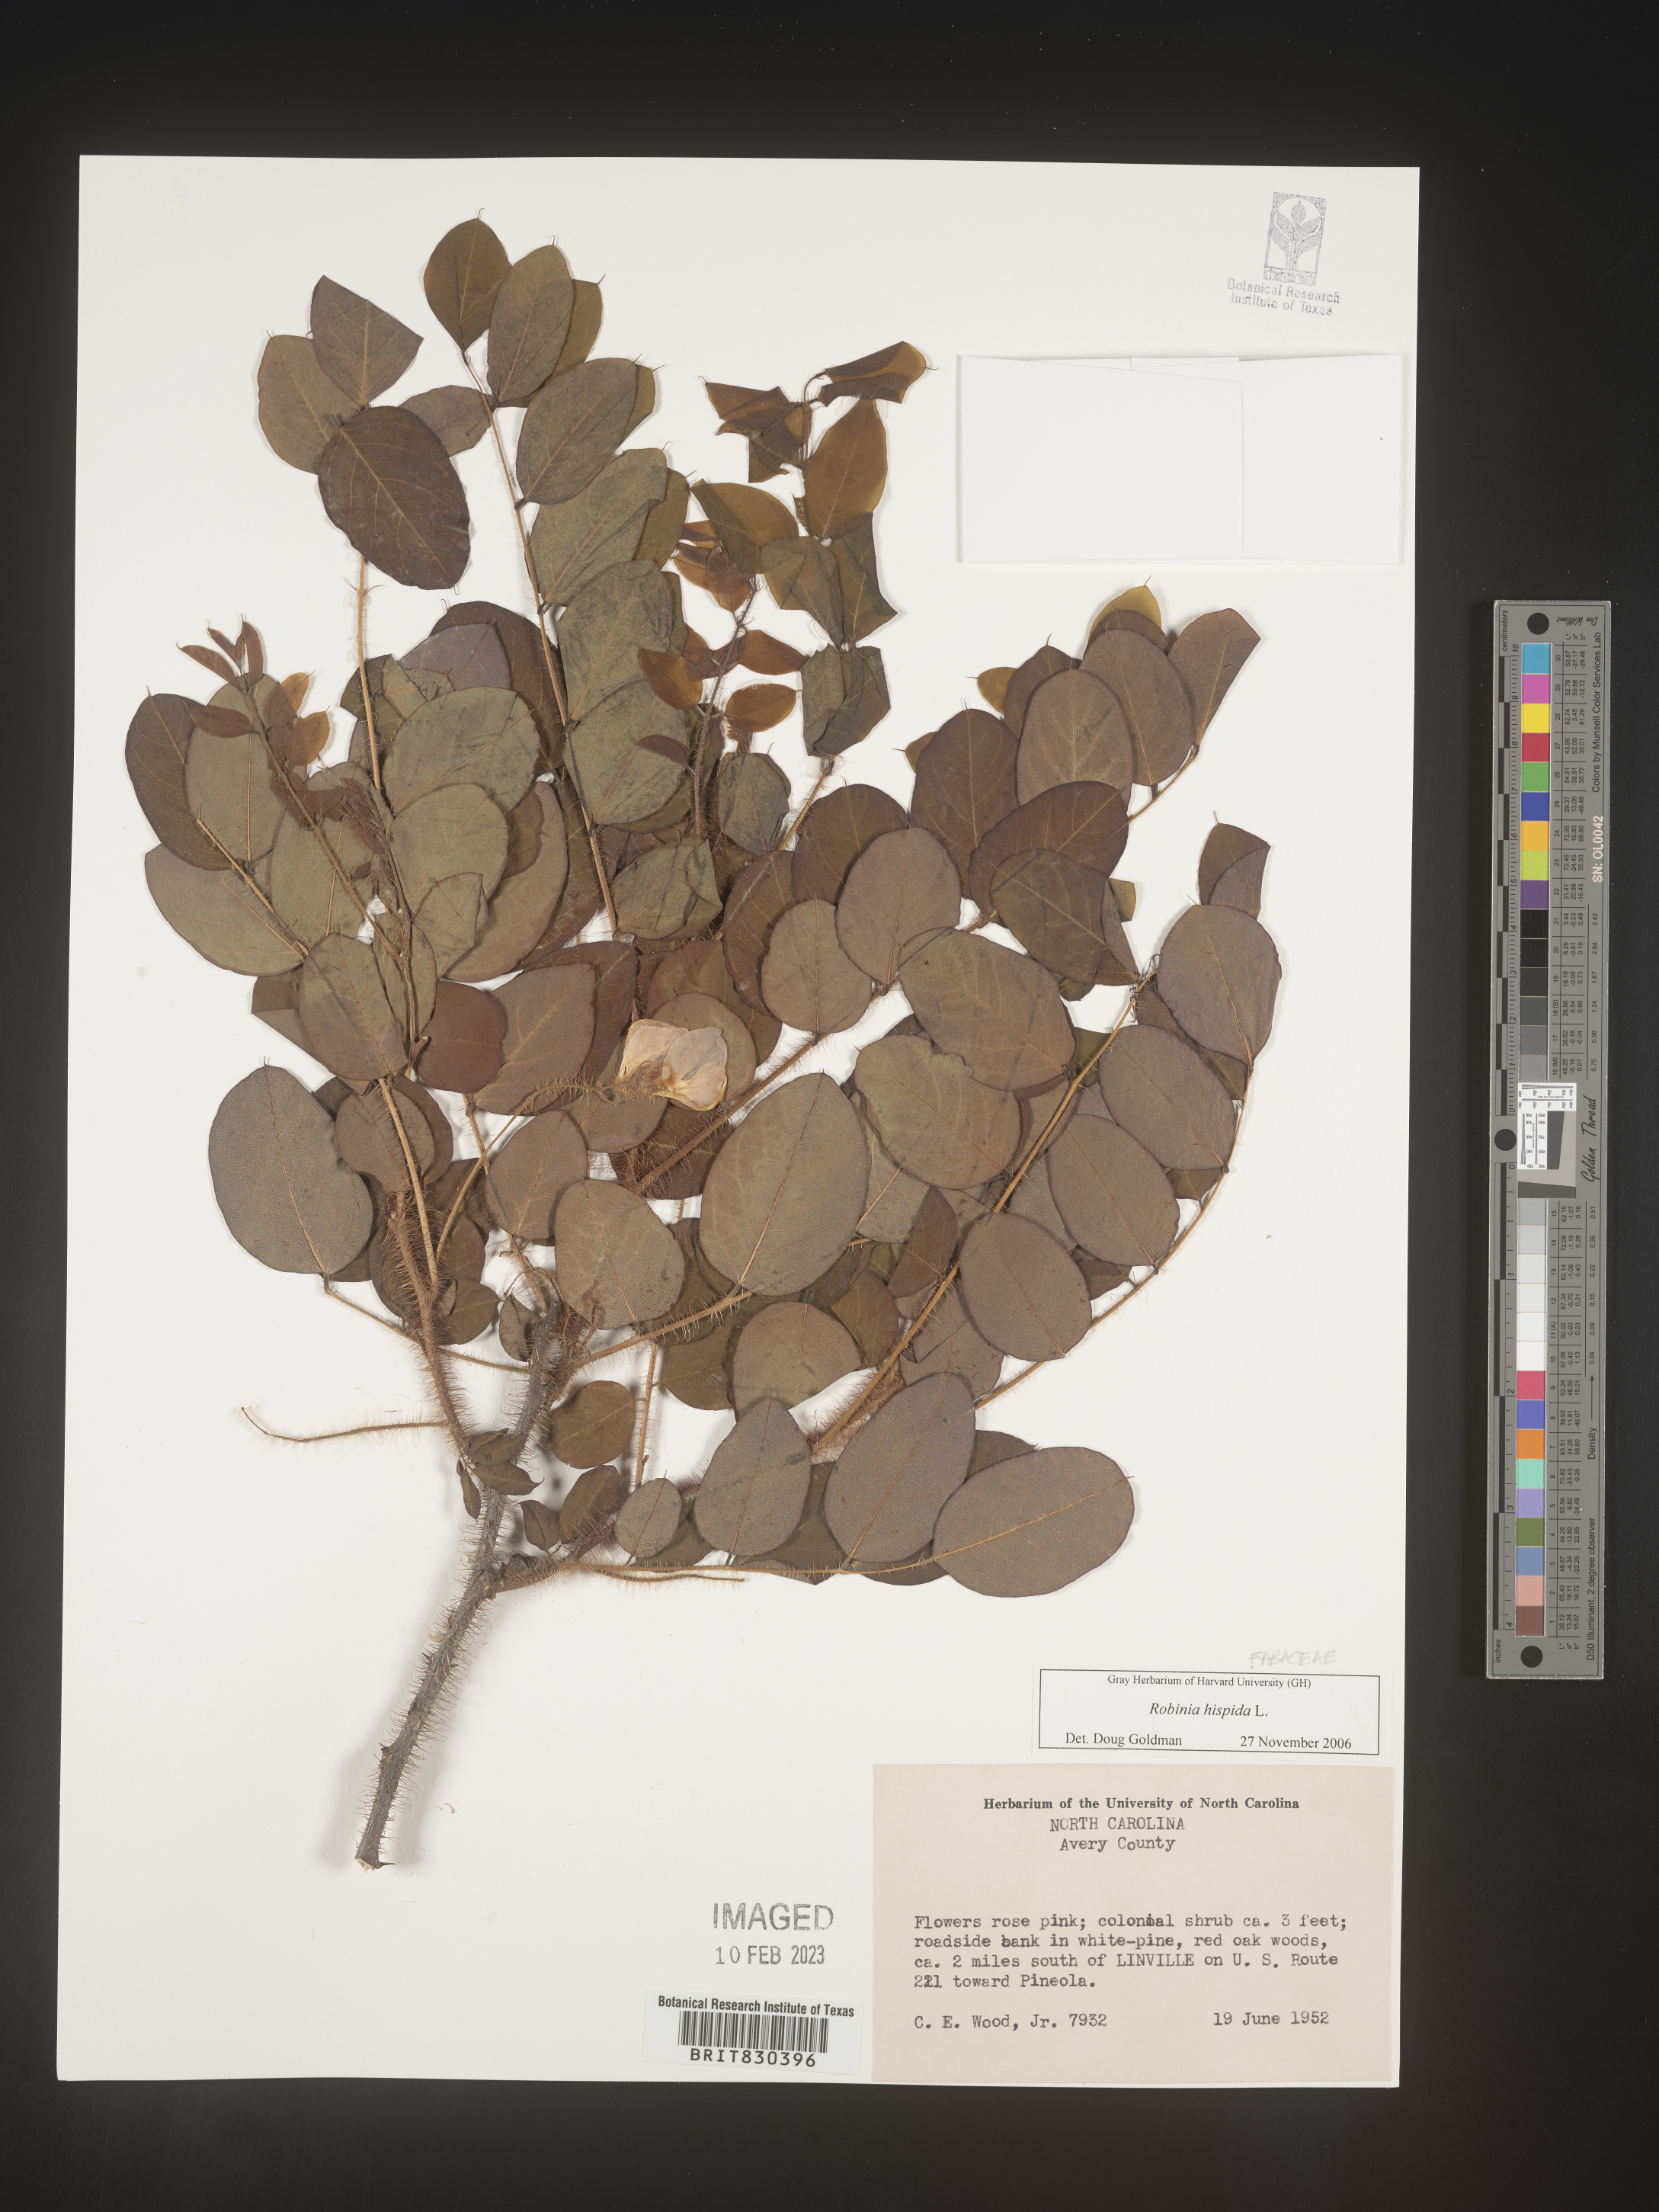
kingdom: Plantae
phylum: Tracheophyta
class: Magnoliopsida
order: Fabales
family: Fabaceae
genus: Robinia
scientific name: Robinia hispida
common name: Bristly locust
